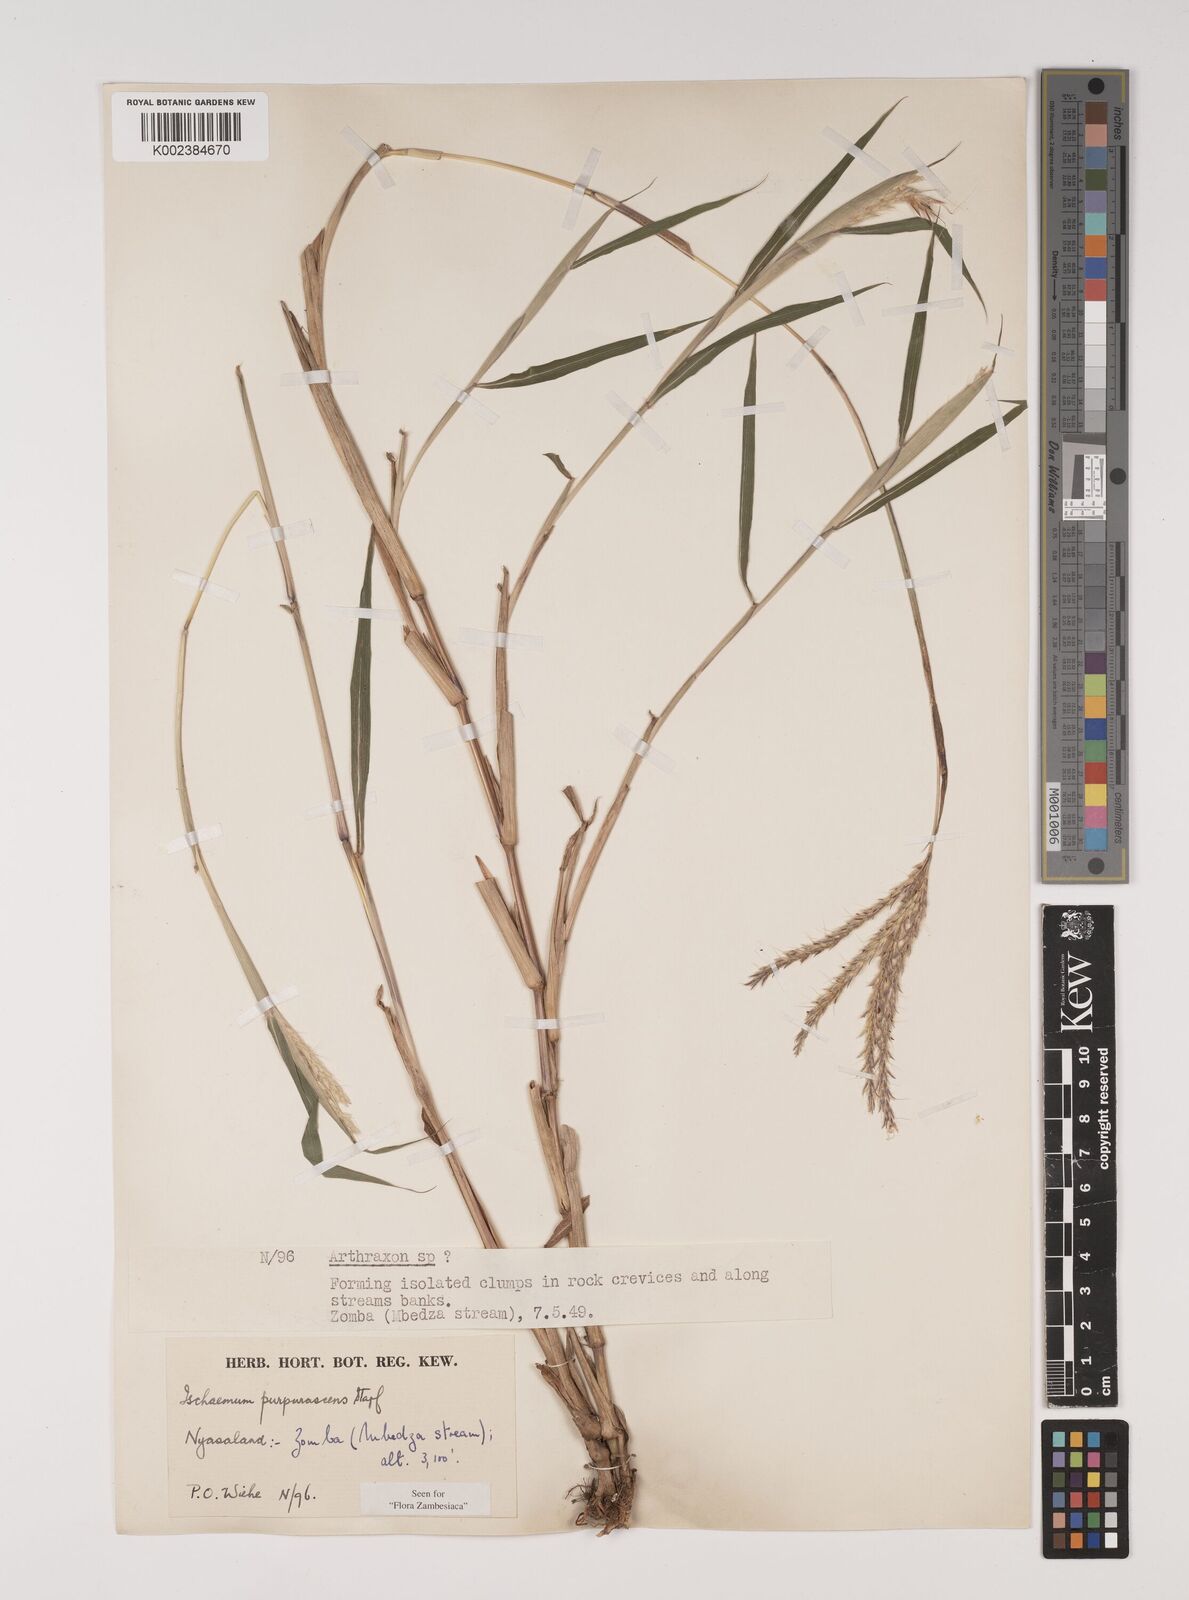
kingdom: Plantae
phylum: Tracheophyta
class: Liliopsida
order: Poales
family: Poaceae
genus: Ischaemum
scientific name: Ischaemum
